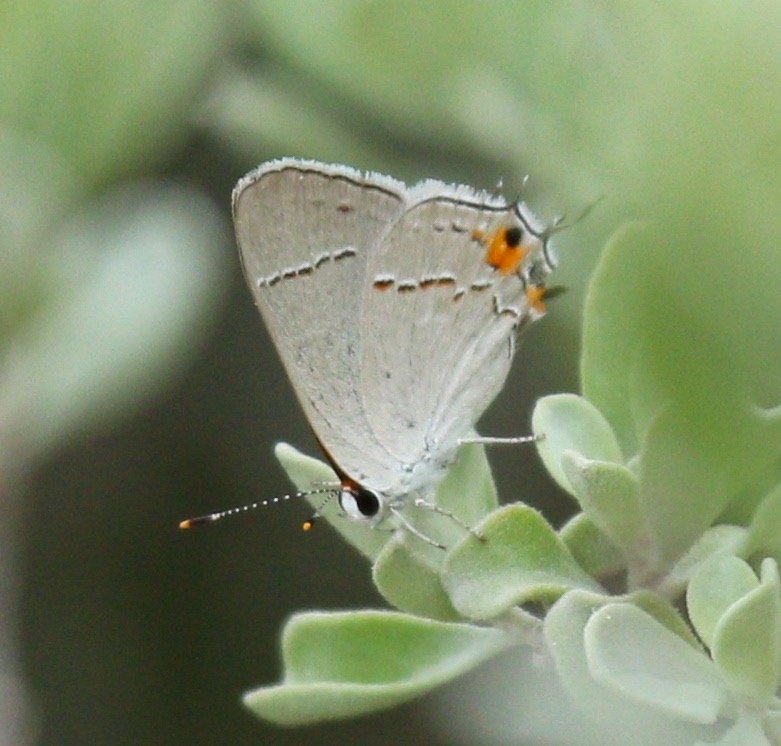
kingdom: Animalia
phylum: Arthropoda
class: Insecta
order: Lepidoptera
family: Lycaenidae
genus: Strymon
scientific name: Strymon melinus
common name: Gray Hairstreak
